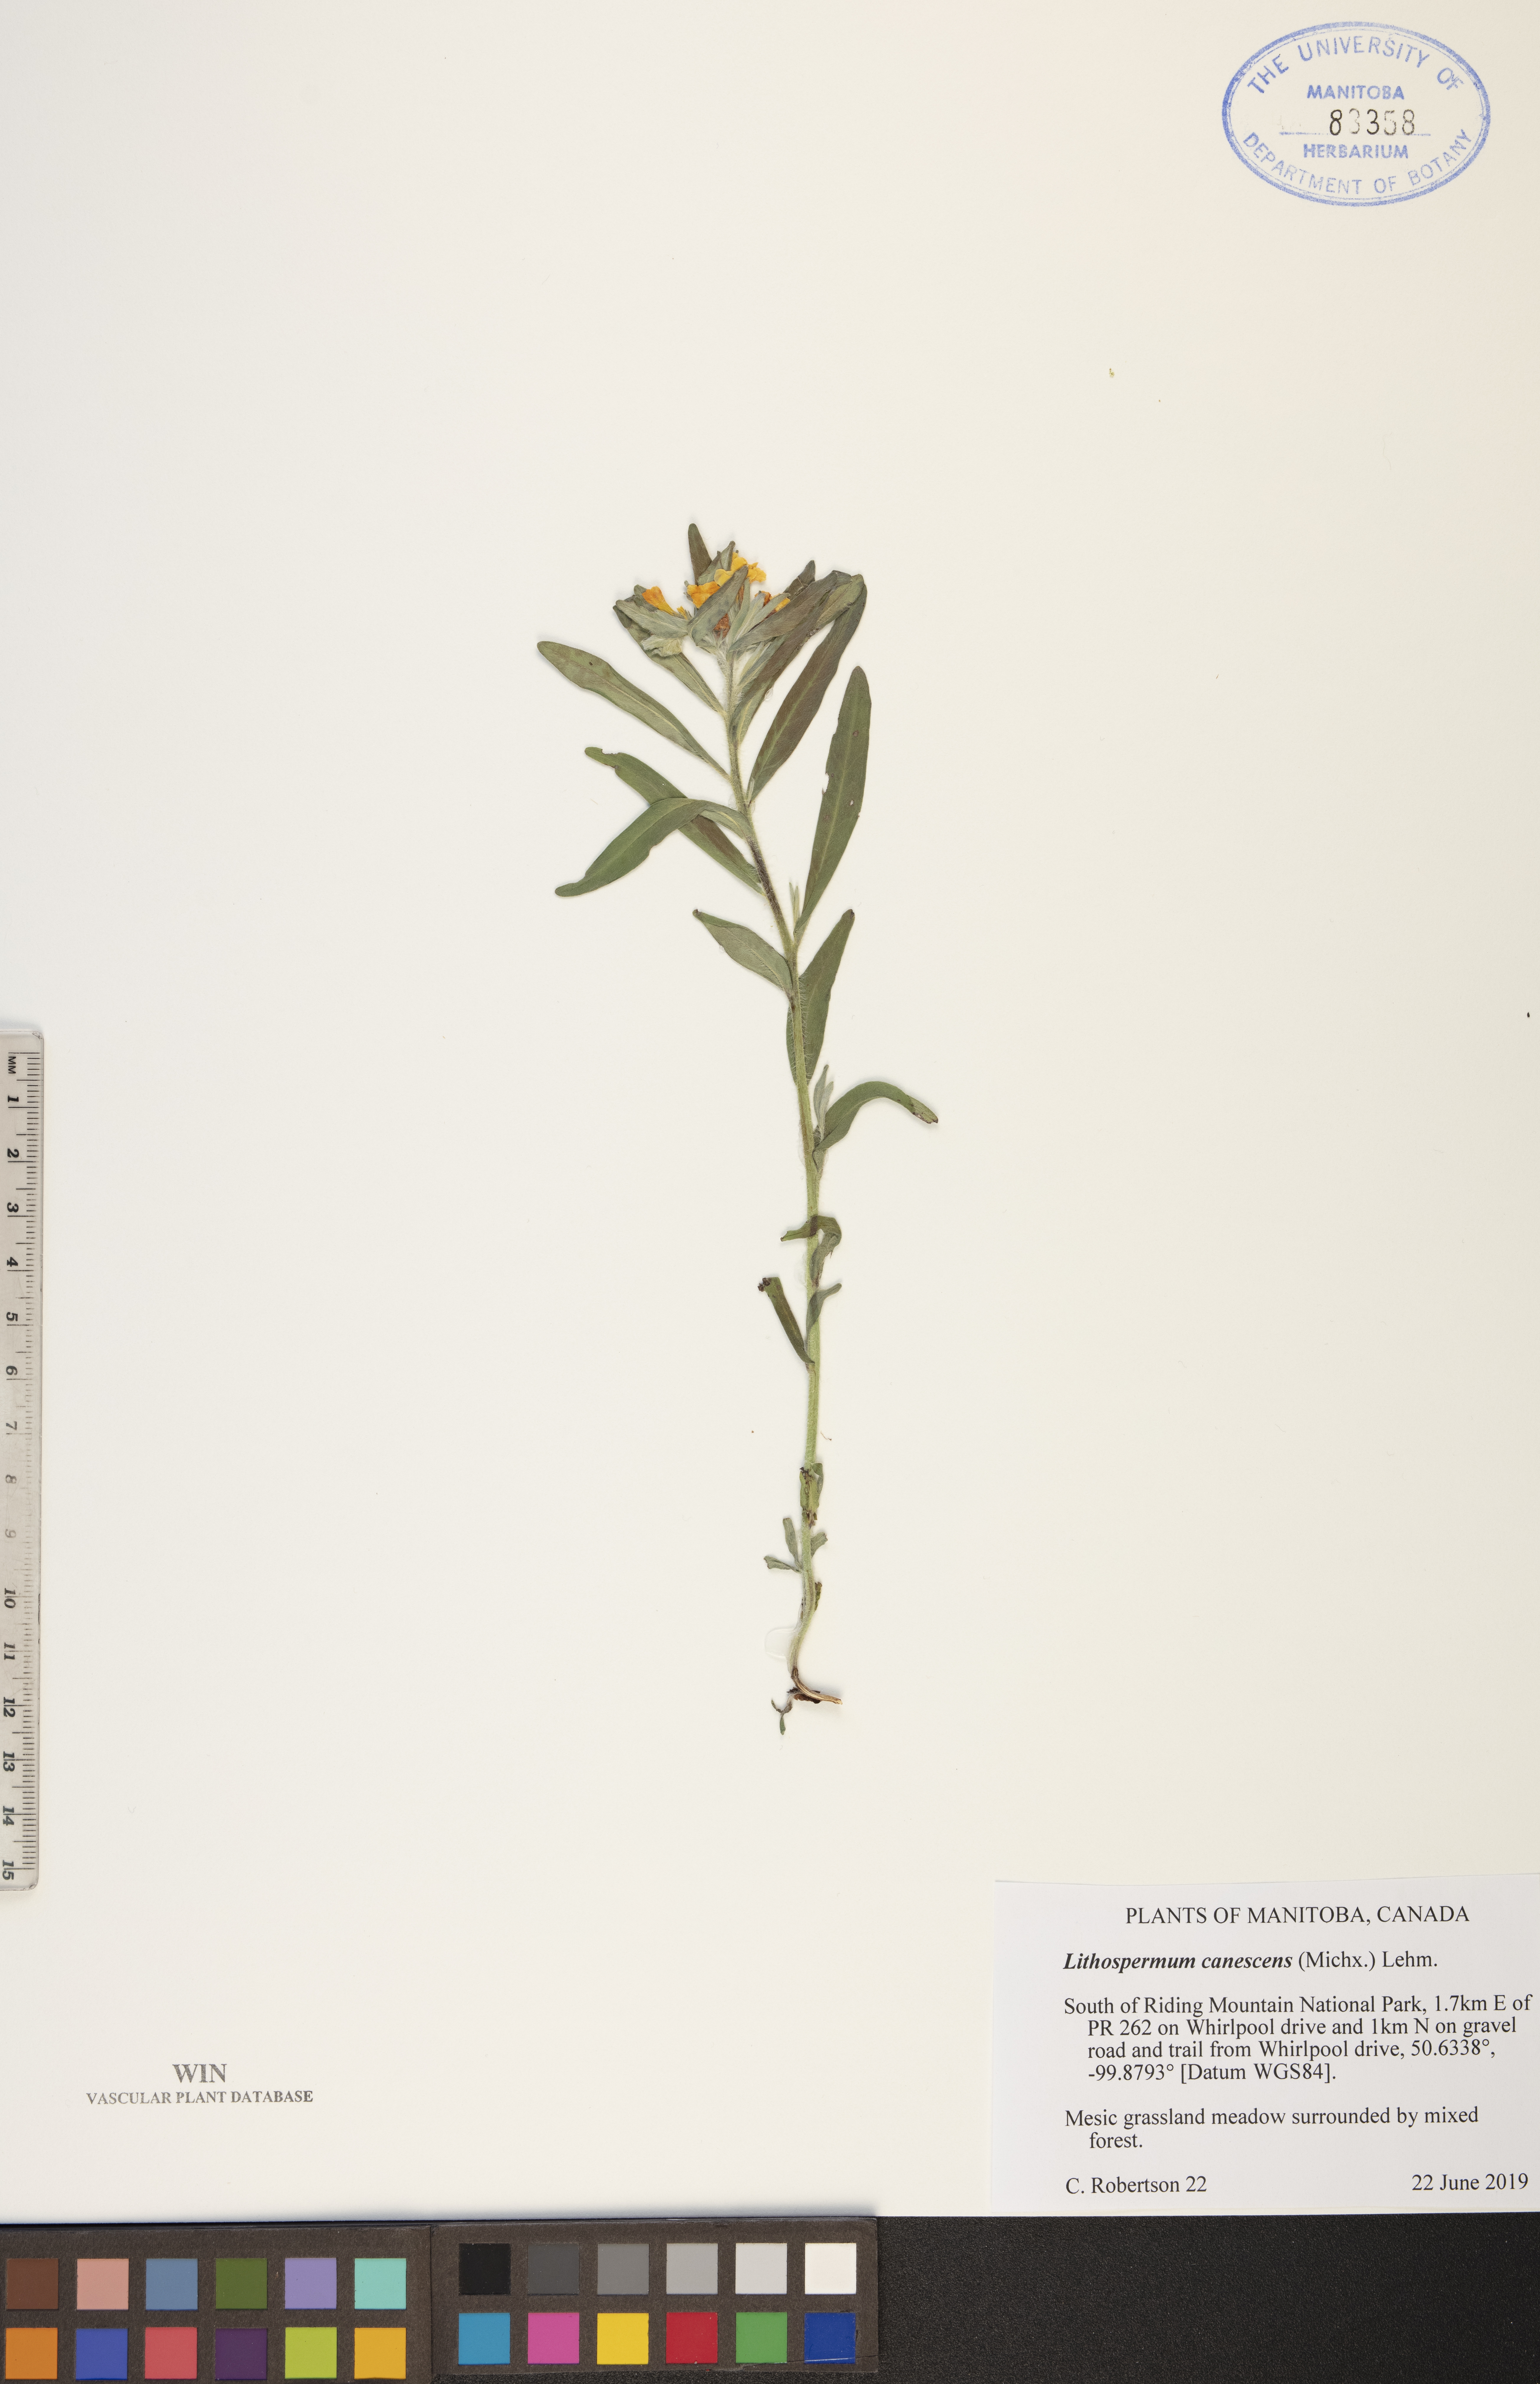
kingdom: Plantae
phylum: Tracheophyta
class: Magnoliopsida
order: Boraginales
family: Boraginaceae
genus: Lithospermum
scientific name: Lithospermum canescens
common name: Hoary puccoon
